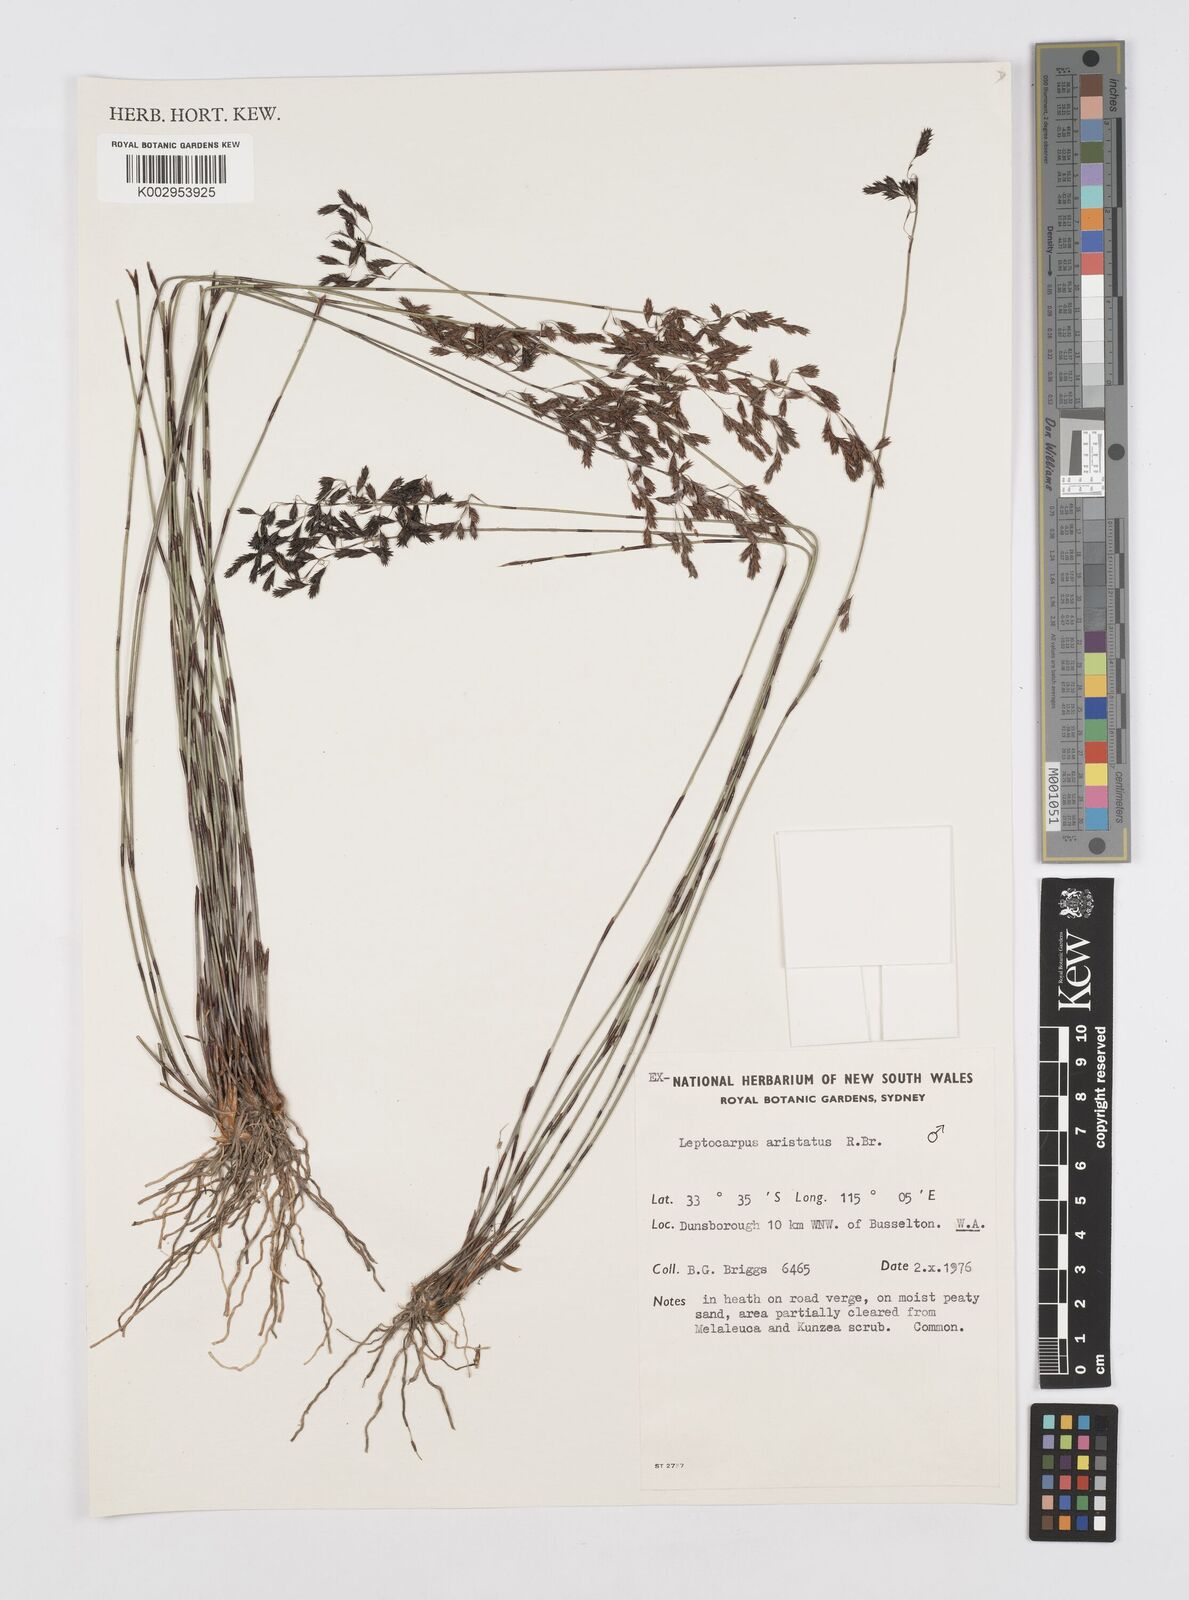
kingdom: Plantae
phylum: Tracheophyta
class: Liliopsida
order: Poales
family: Restionaceae
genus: Chaetanthus
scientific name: Chaetanthus aristatus
